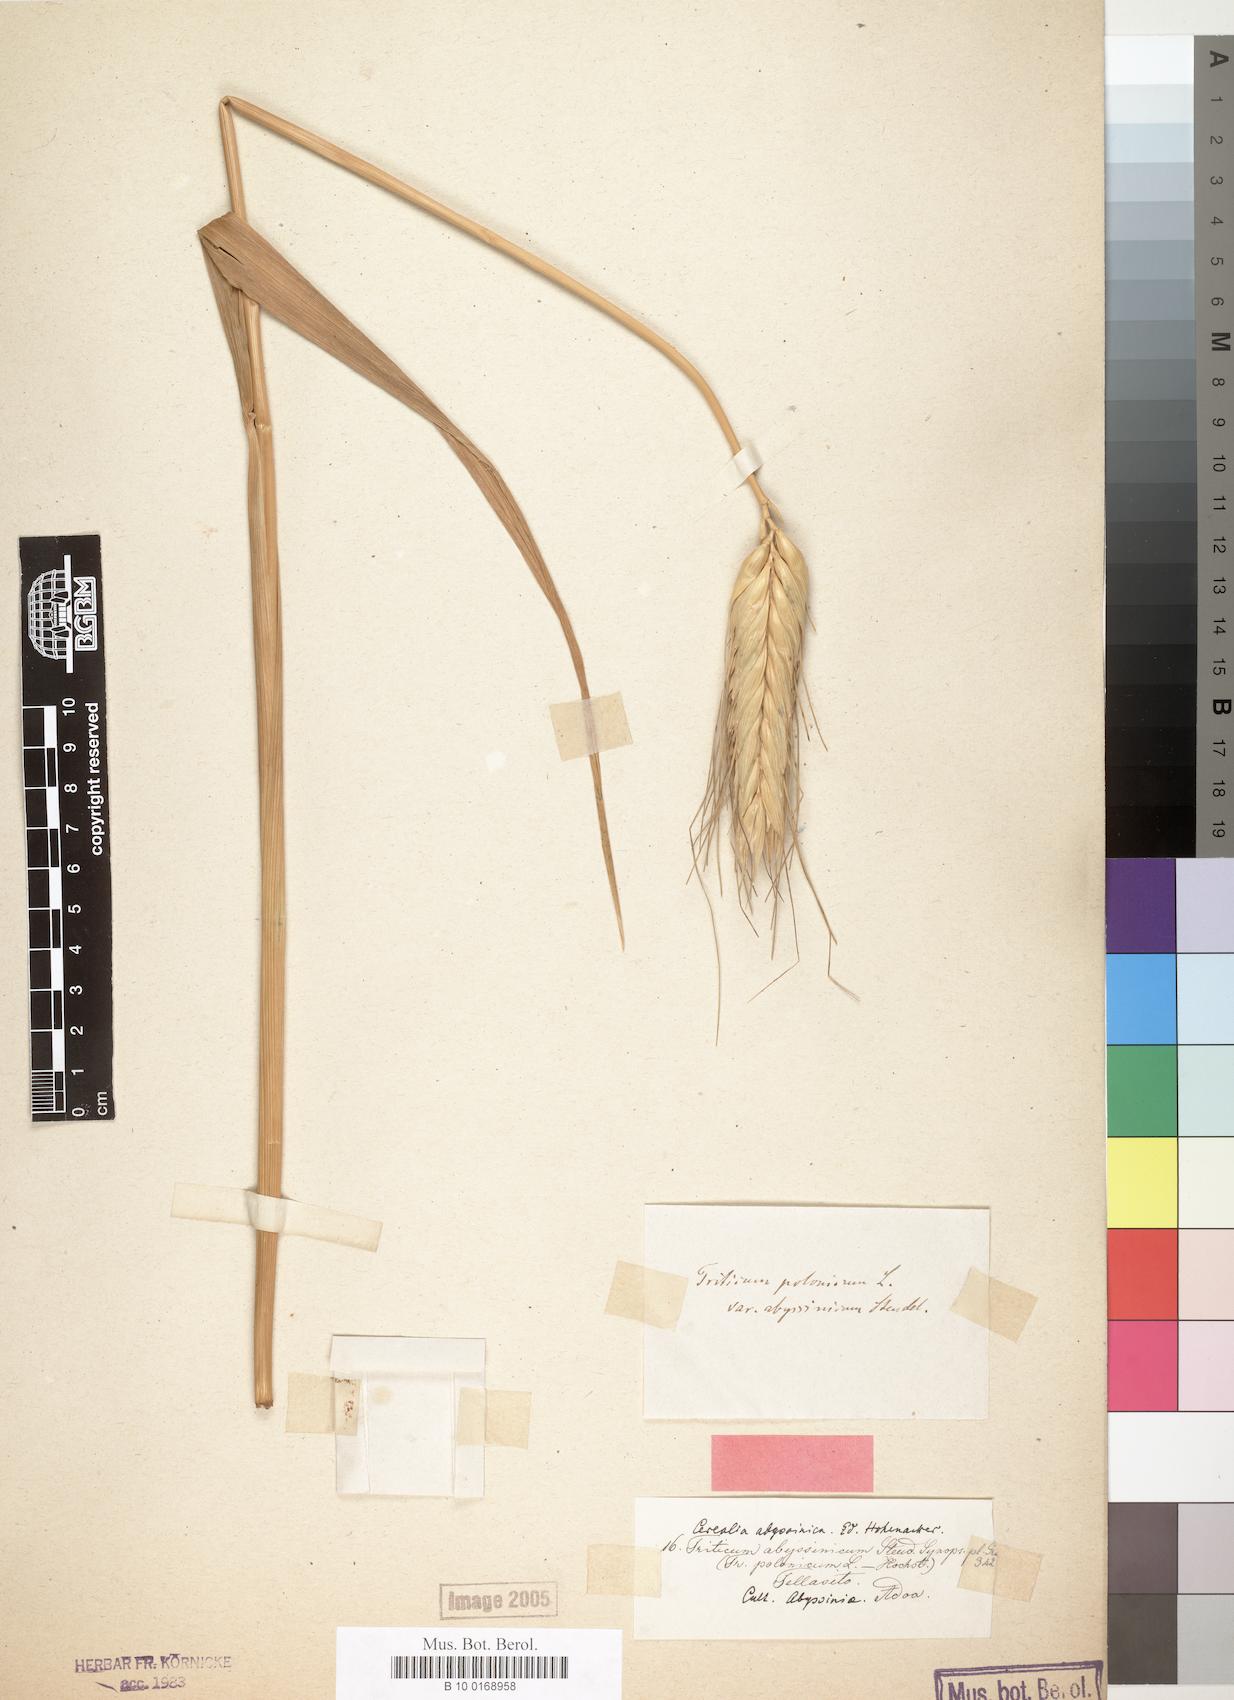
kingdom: Plantae
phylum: Tracheophyta
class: Liliopsida
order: Poales
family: Poaceae
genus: Triticum
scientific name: Triticum turgidum
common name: Rivet wheat
